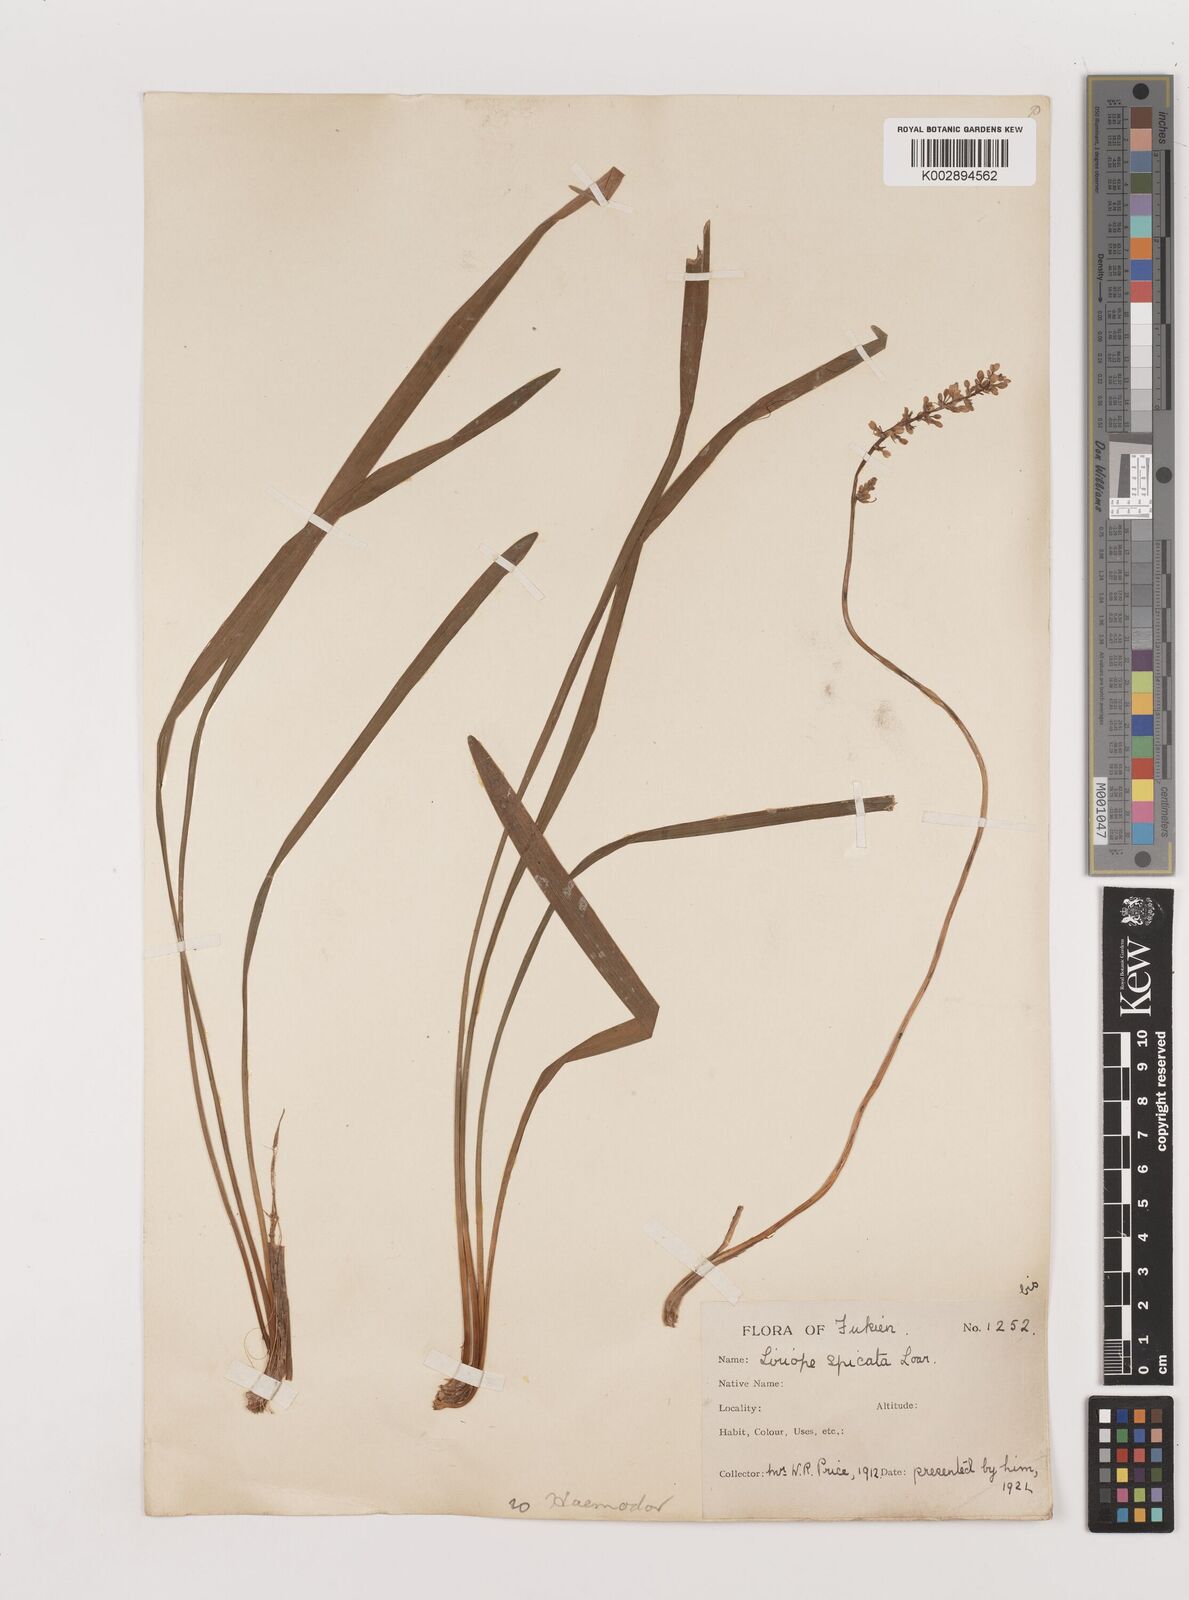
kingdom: Plantae
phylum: Tracheophyta
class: Liliopsida
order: Asparagales
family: Asparagaceae
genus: Liriope
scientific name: Liriope spicata
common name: Creeping liriope
